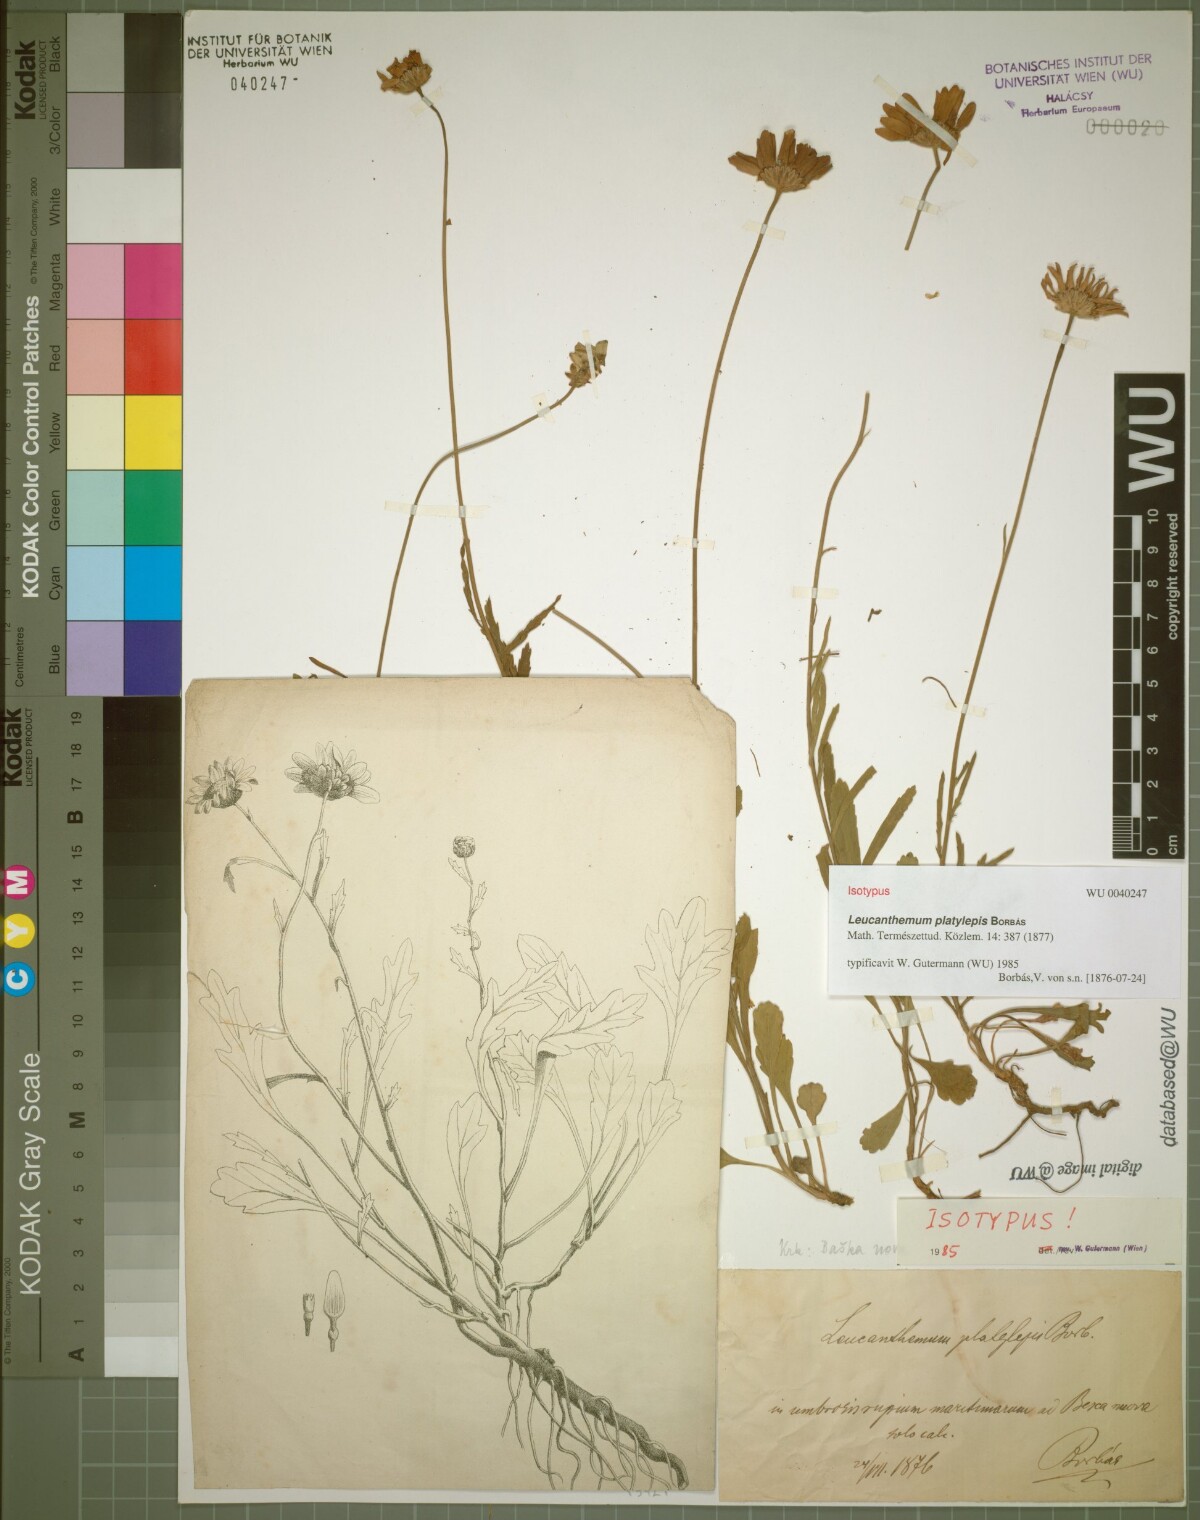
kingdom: Plantae
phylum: Tracheophyta
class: Magnoliopsida
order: Asterales
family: Asteraceae
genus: Leucanthemum
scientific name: Leucanthemum platylepis
